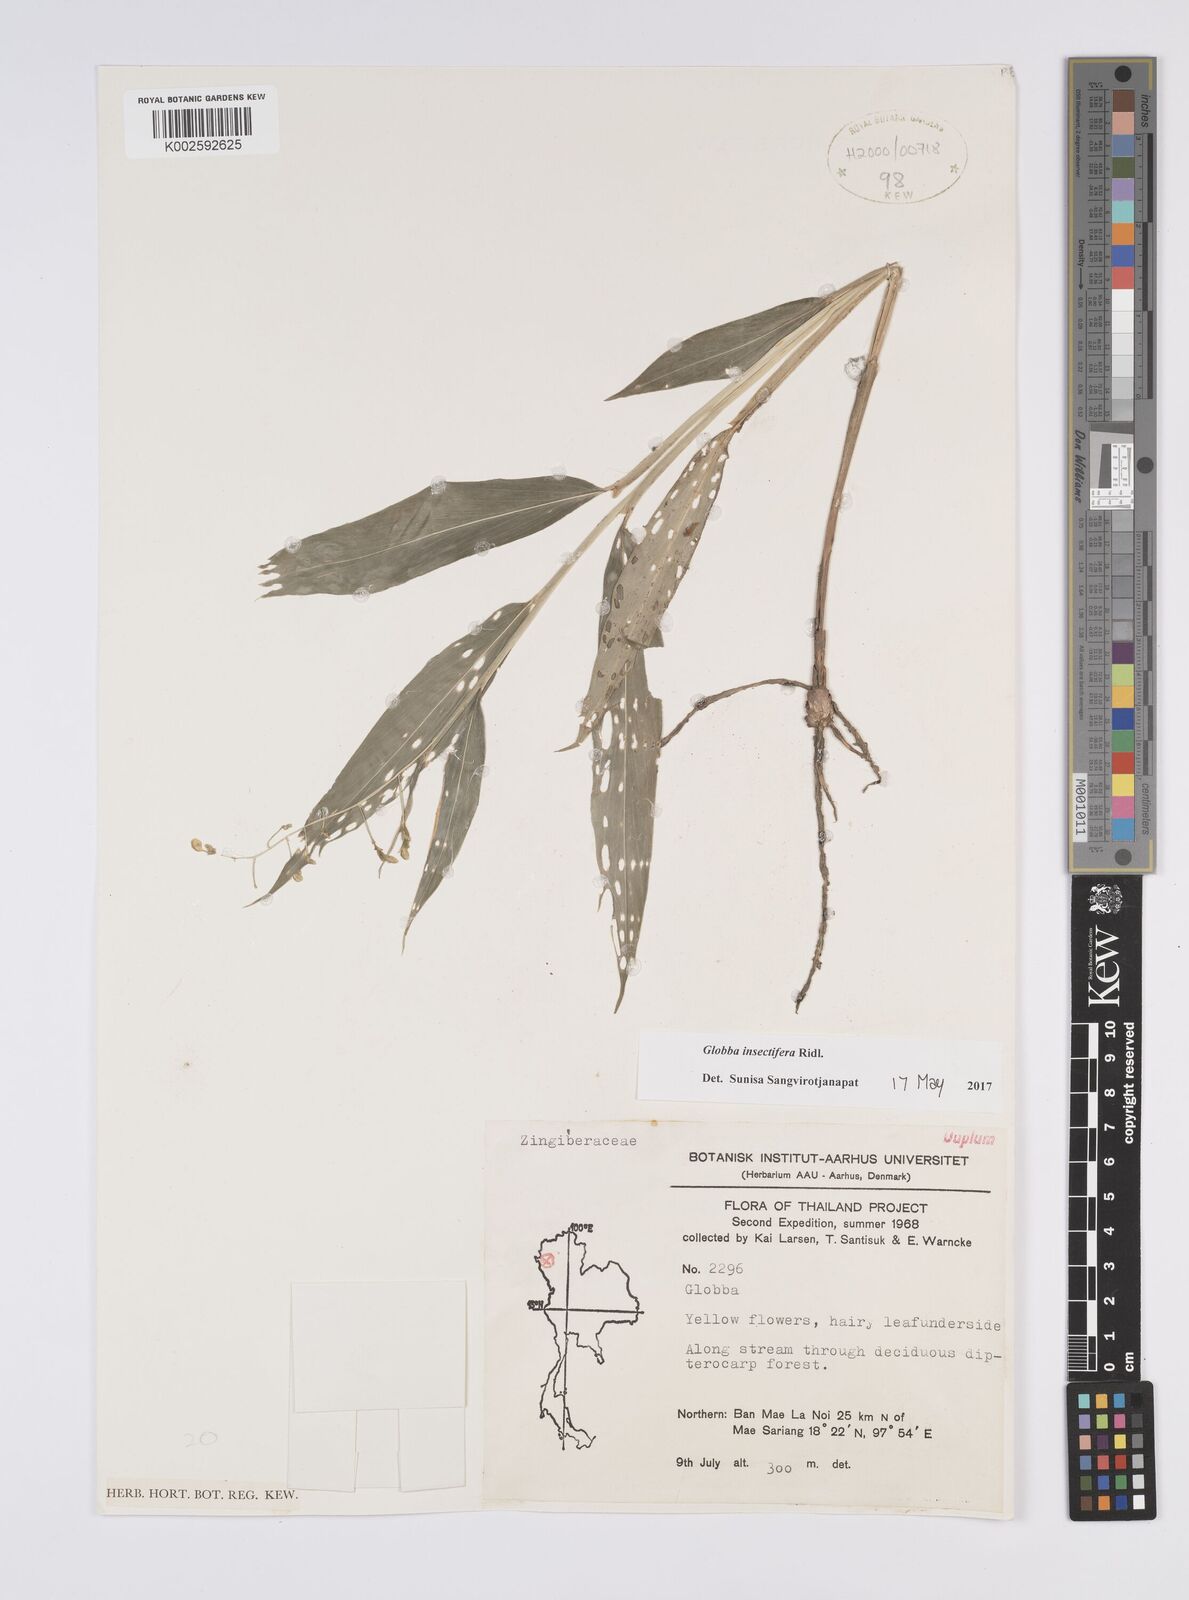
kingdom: Plantae
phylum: Tracheophyta
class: Liliopsida
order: Zingiberales
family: Zingiberaceae
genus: Globba
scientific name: Globba insectifera
